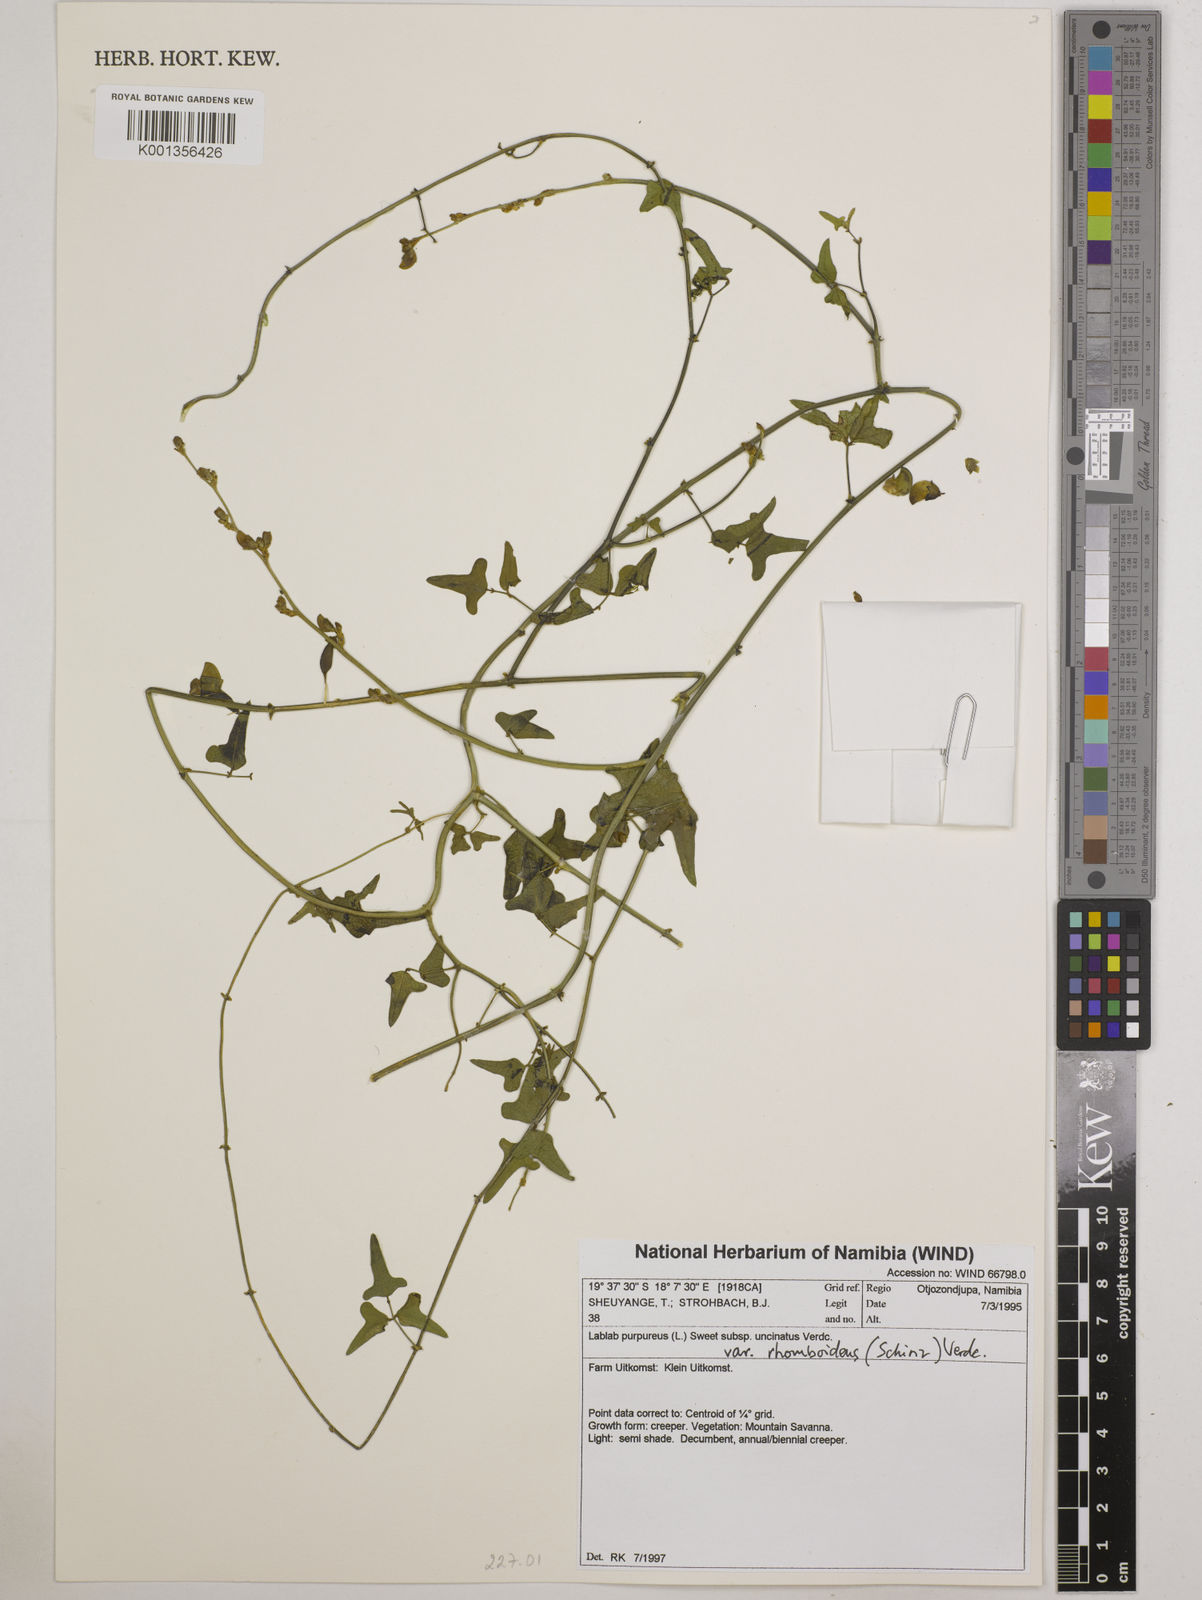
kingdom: Plantae
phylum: Tracheophyta
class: Magnoliopsida
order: Fabales
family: Fabaceae
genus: Lablab
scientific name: Lablab purpureus
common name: Lablab-bean
